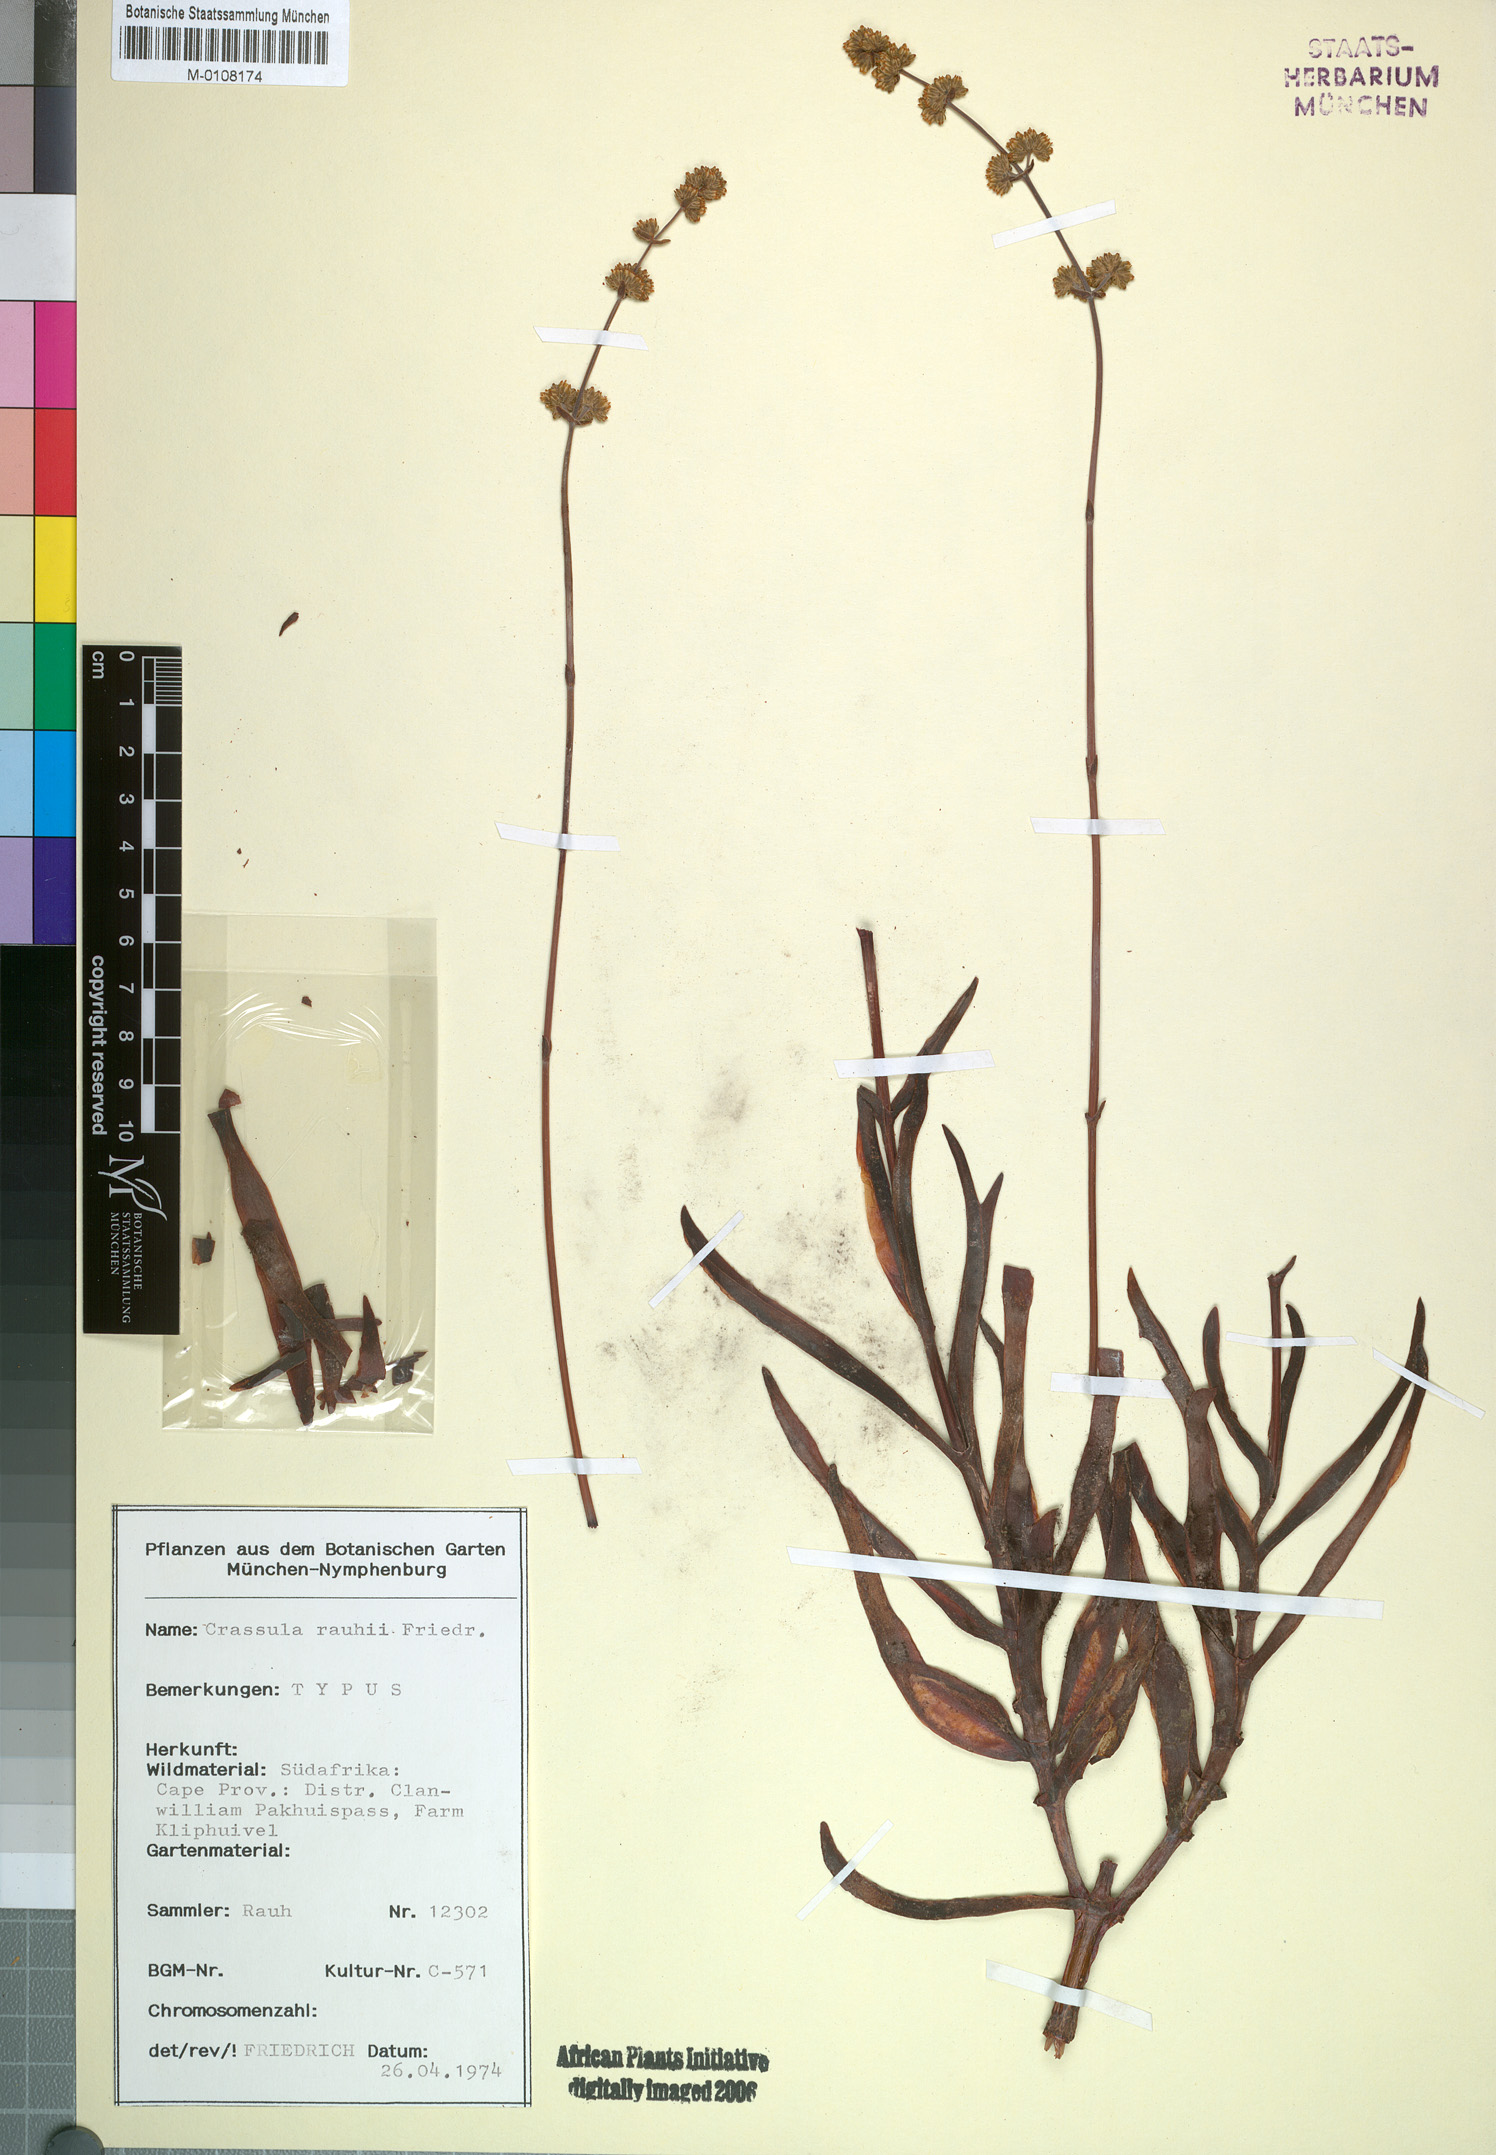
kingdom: Plantae
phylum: Tracheophyta
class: Magnoliopsida
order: Saxifragales
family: Crassulaceae
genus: Crassula
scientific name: Crassula subacaulis
